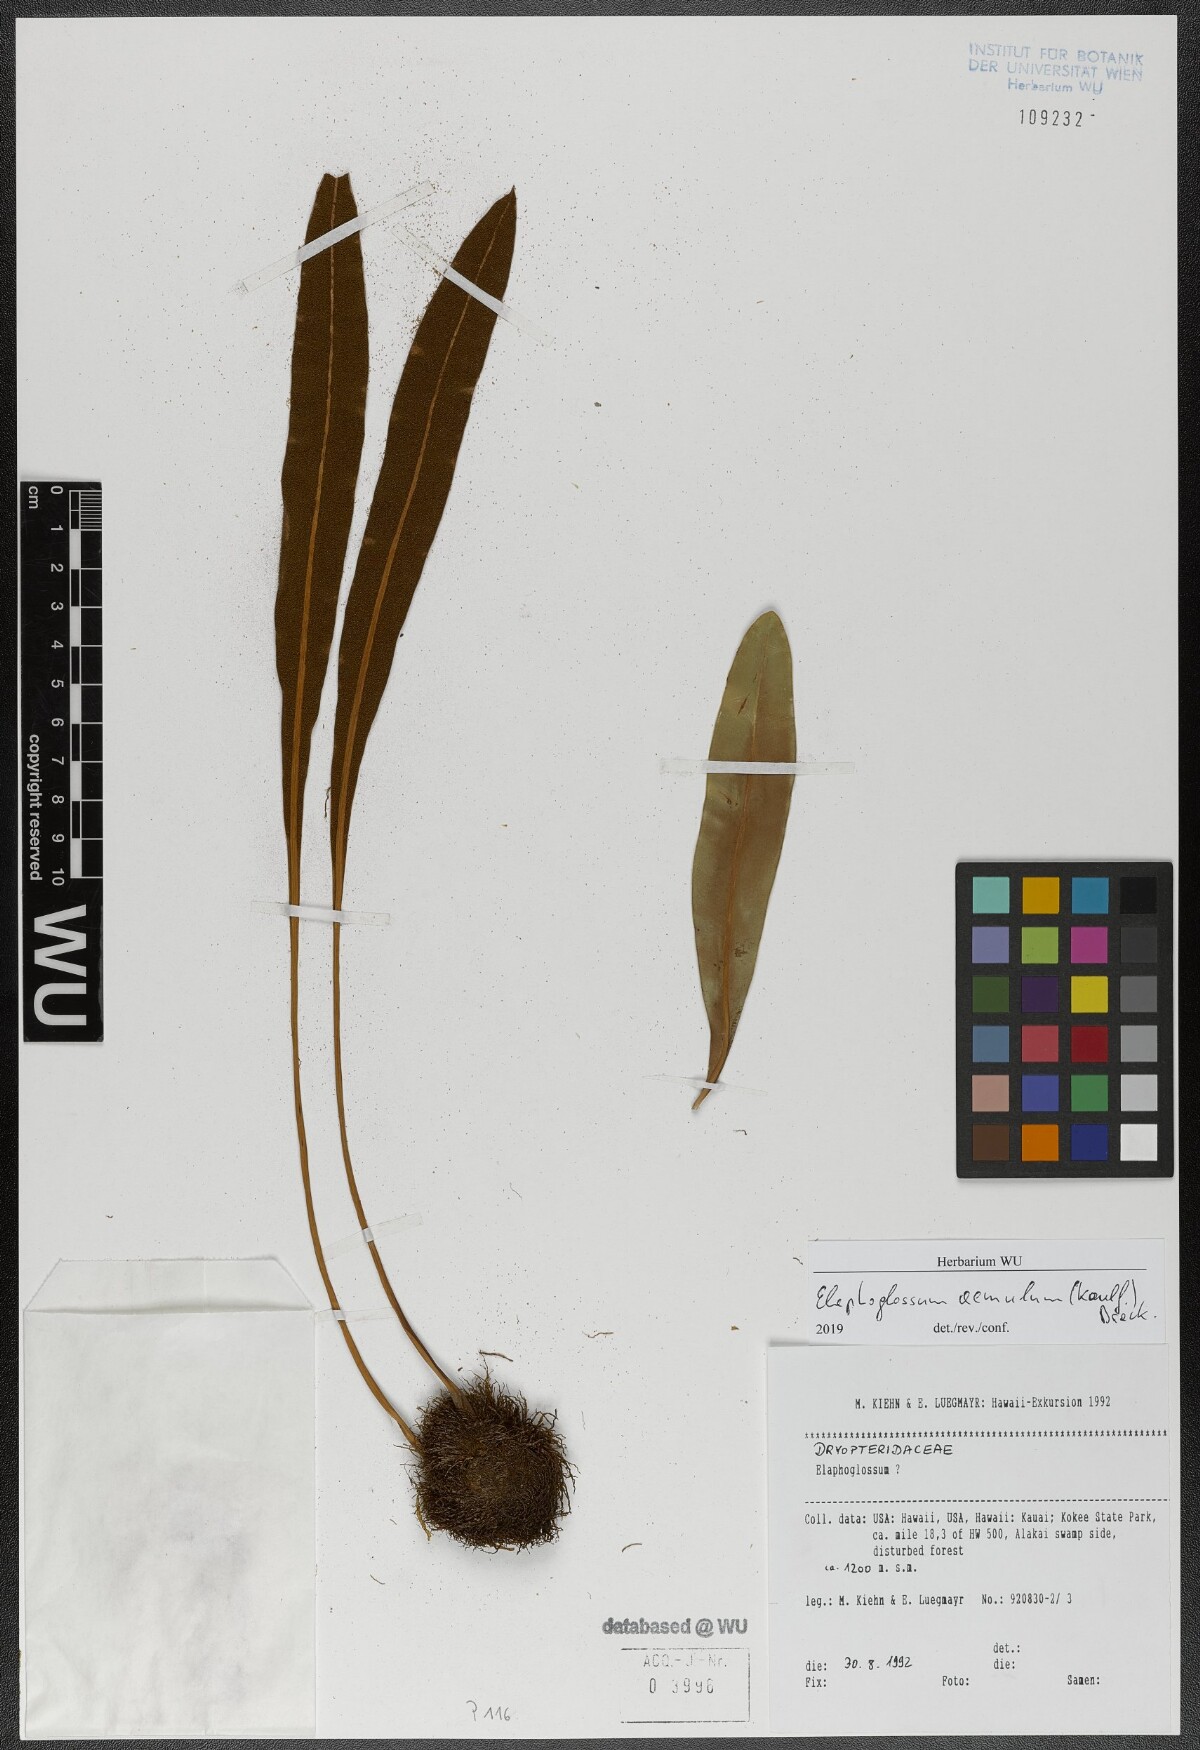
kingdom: Plantae
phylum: Tracheophyta
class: Polypodiopsida
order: Polypodiales
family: Dryopteridaceae
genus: Elaphoglossum
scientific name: Elaphoglossum aemulum
